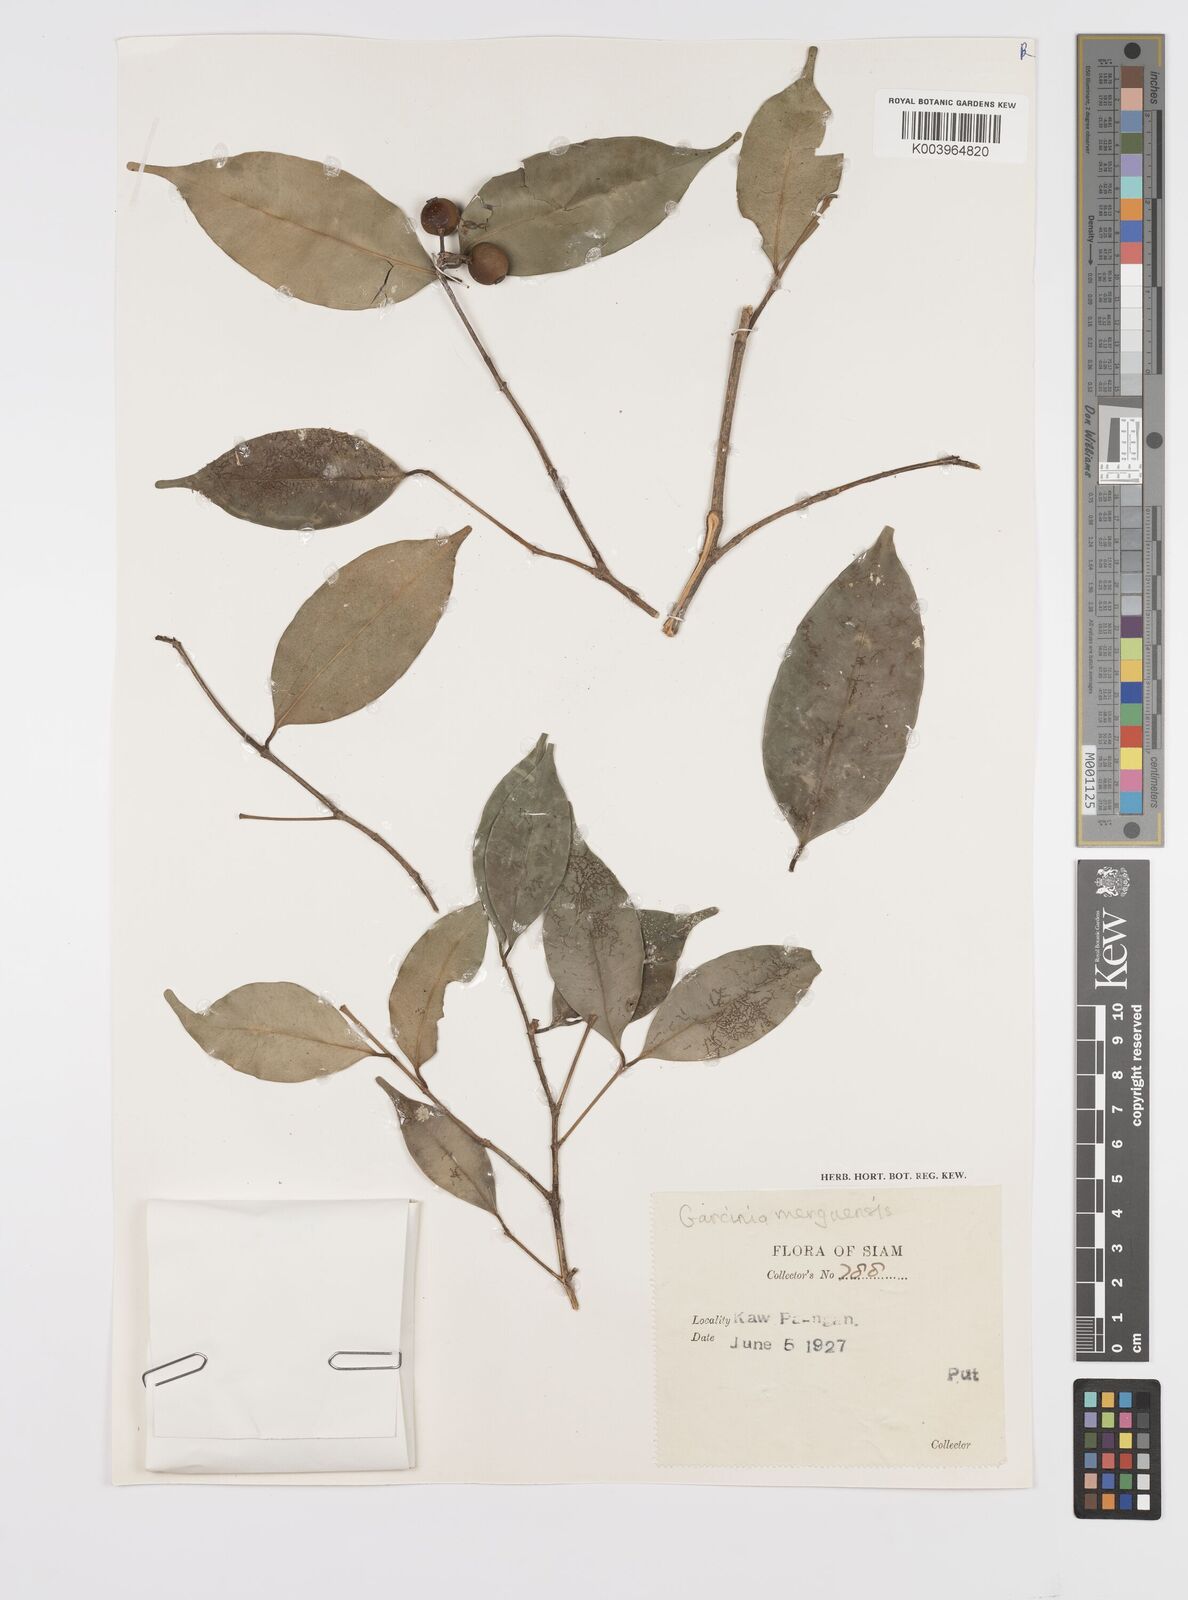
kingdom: Plantae
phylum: Tracheophyta
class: Magnoliopsida
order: Malpighiales
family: Clusiaceae
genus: Garcinia
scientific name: Garcinia
